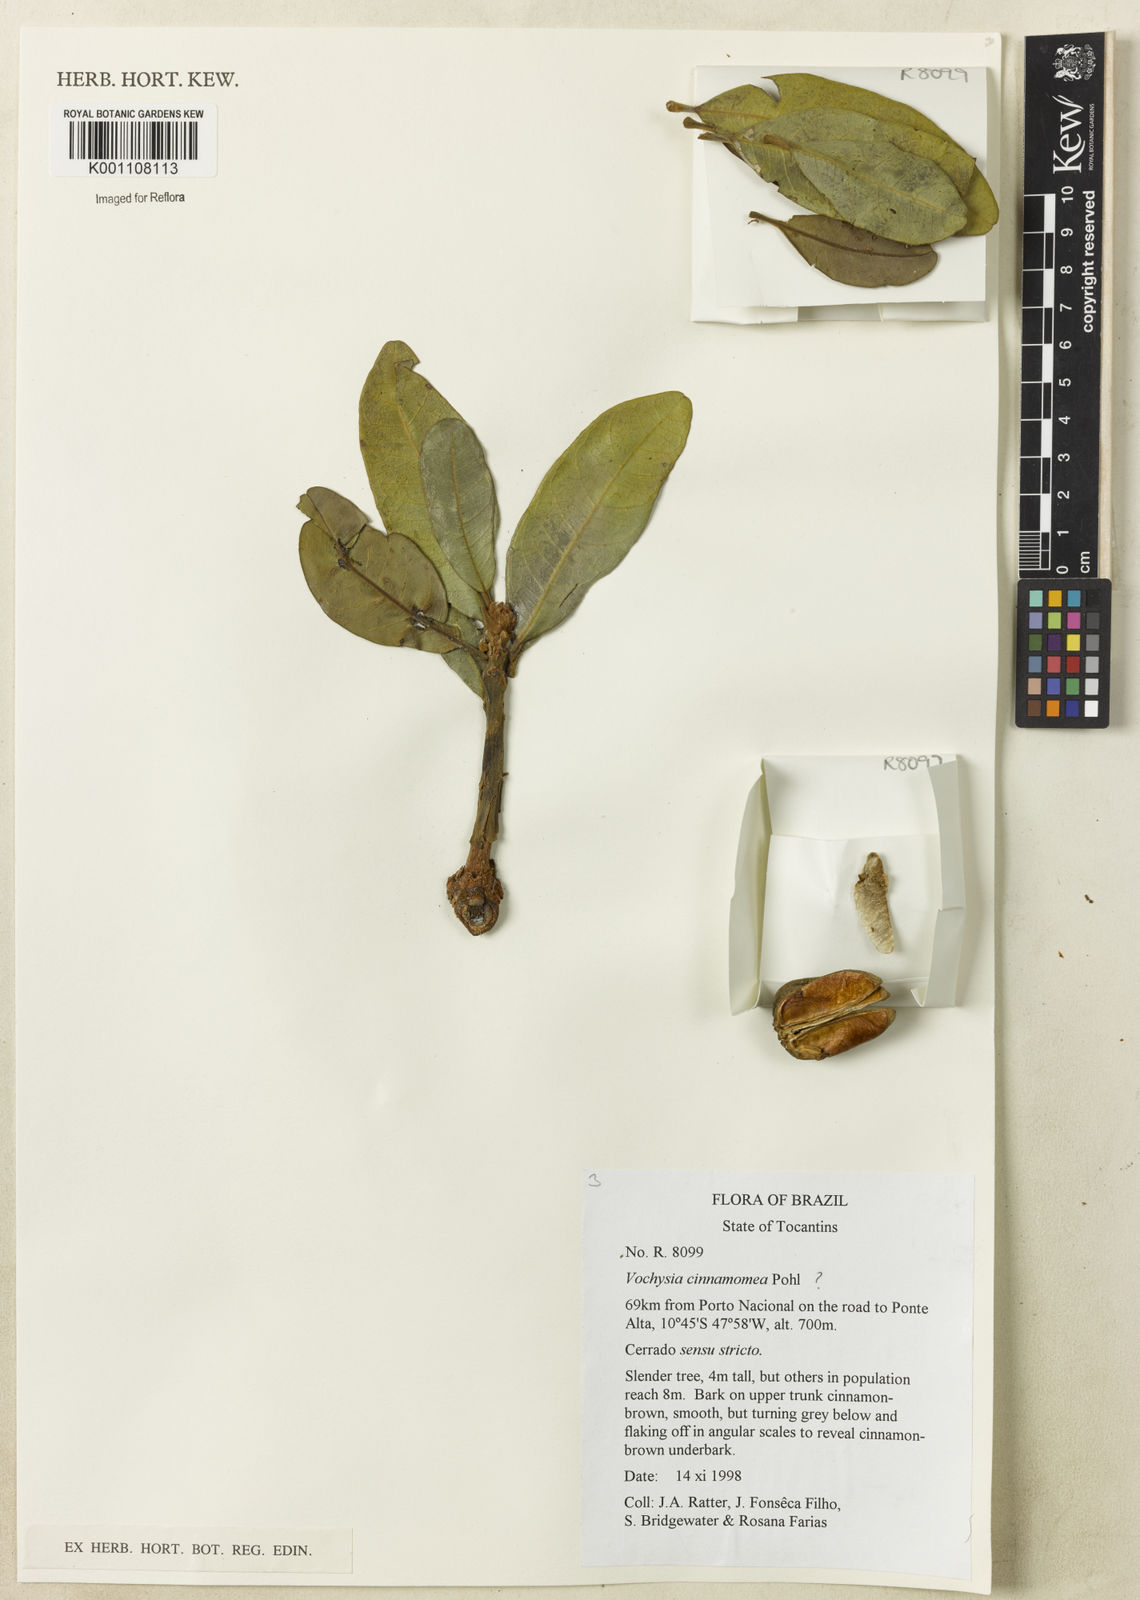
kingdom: Plantae
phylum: Tracheophyta
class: Magnoliopsida
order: Myrtales
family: Vochysiaceae
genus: Vochysia
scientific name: Vochysia cinnamomea
